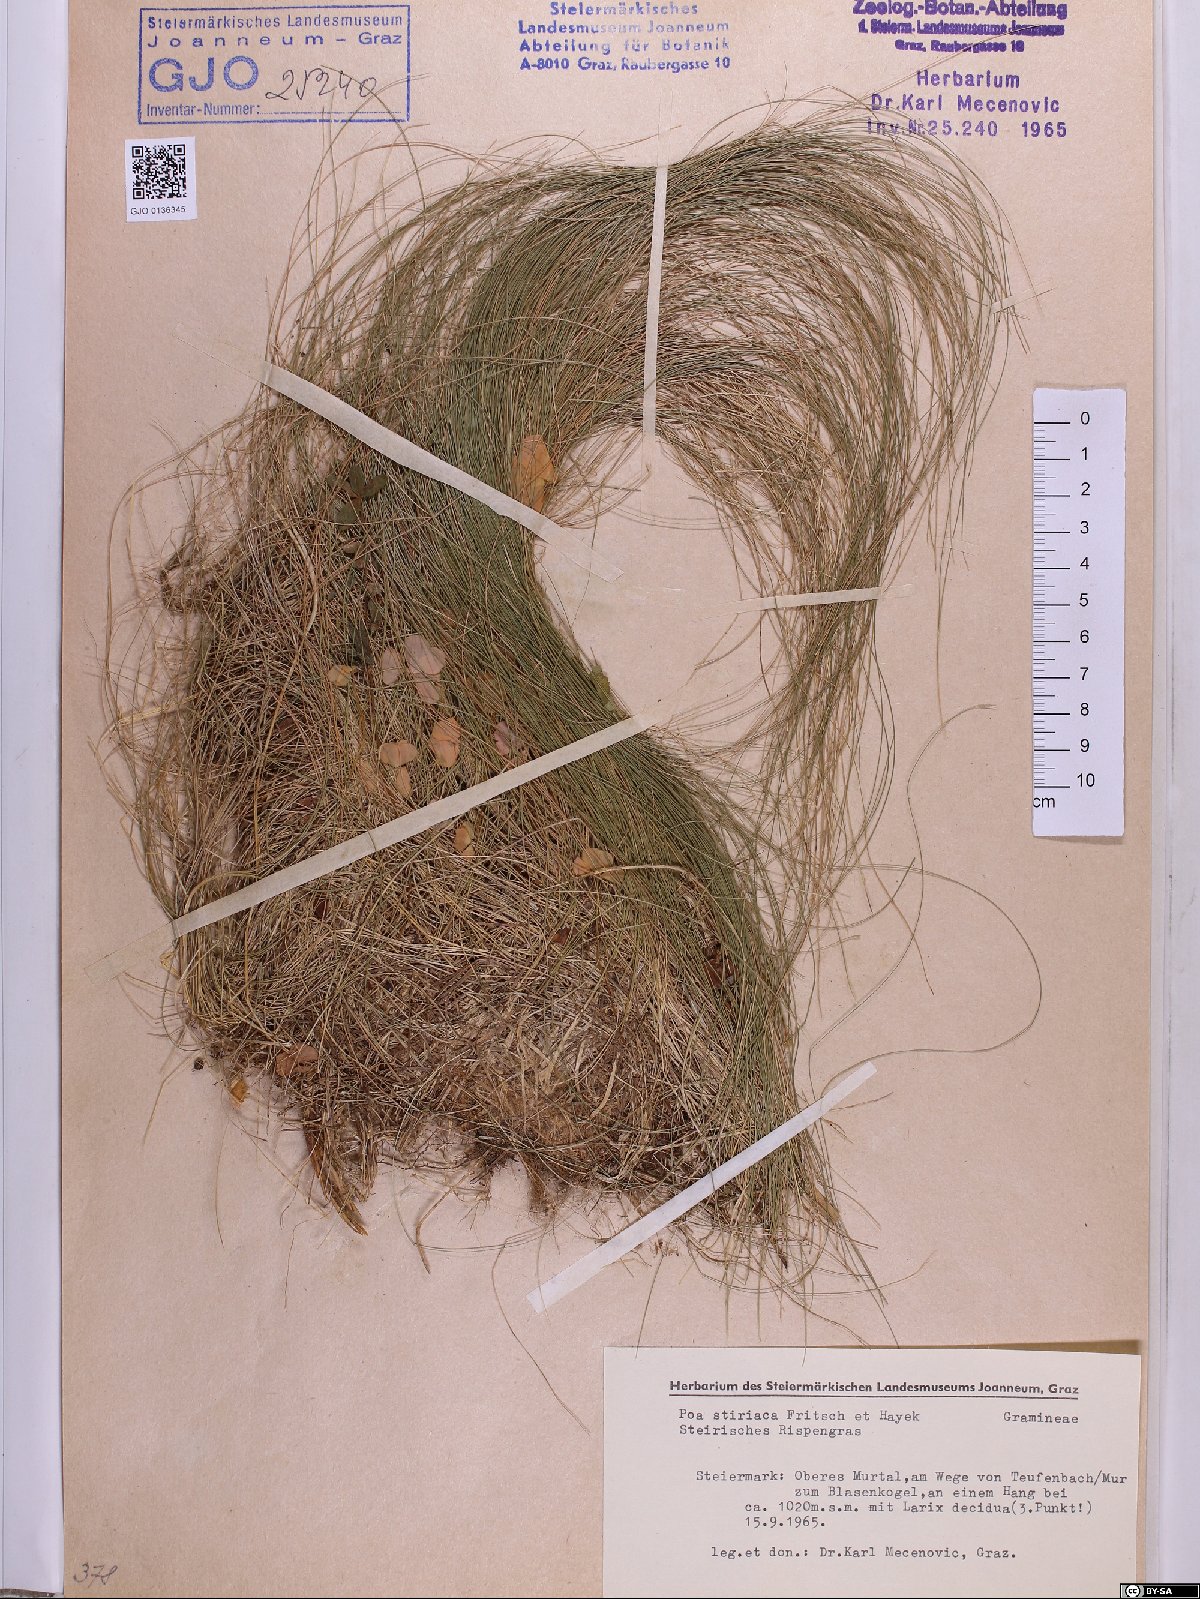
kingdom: Plantae
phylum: Tracheophyta
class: Liliopsida
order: Poales
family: Poaceae
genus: Poa
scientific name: Poa stiriaca
